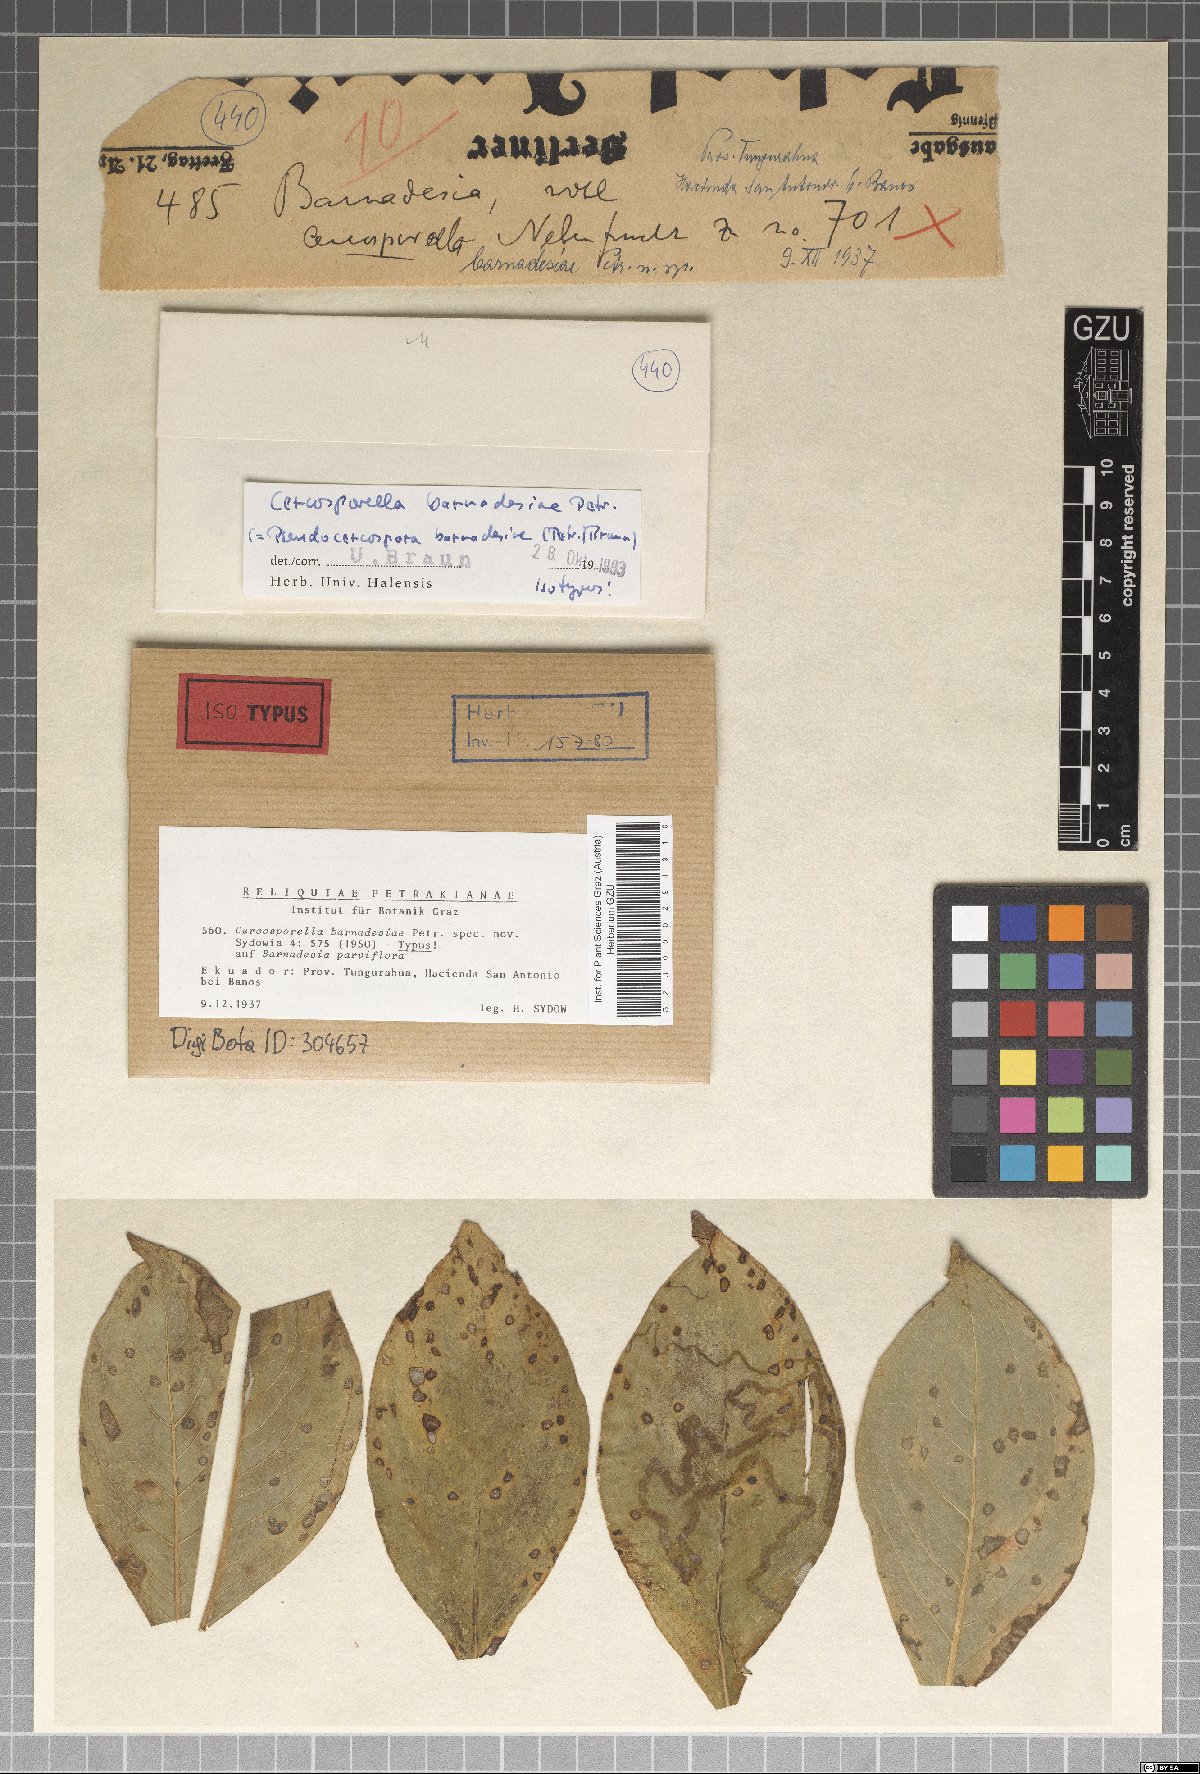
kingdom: Fungi
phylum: Ascomycota
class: Dothideomycetes
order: Mycosphaerellales
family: Mycosphaerellaceae
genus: Cercosporella
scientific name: Cercosporella barnadesiae
